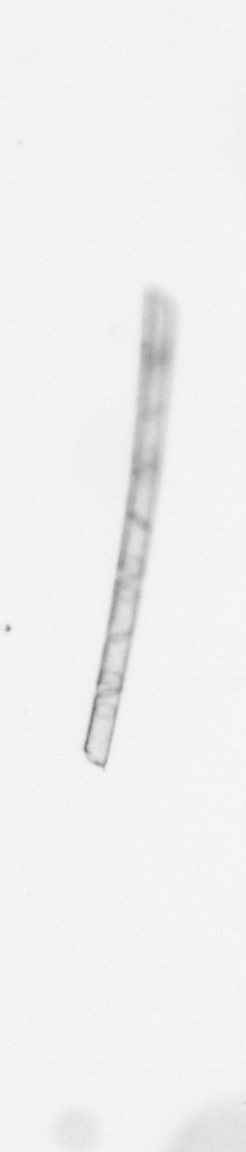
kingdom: Chromista
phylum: Ochrophyta
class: Bacillariophyceae
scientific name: Bacillariophyceae
